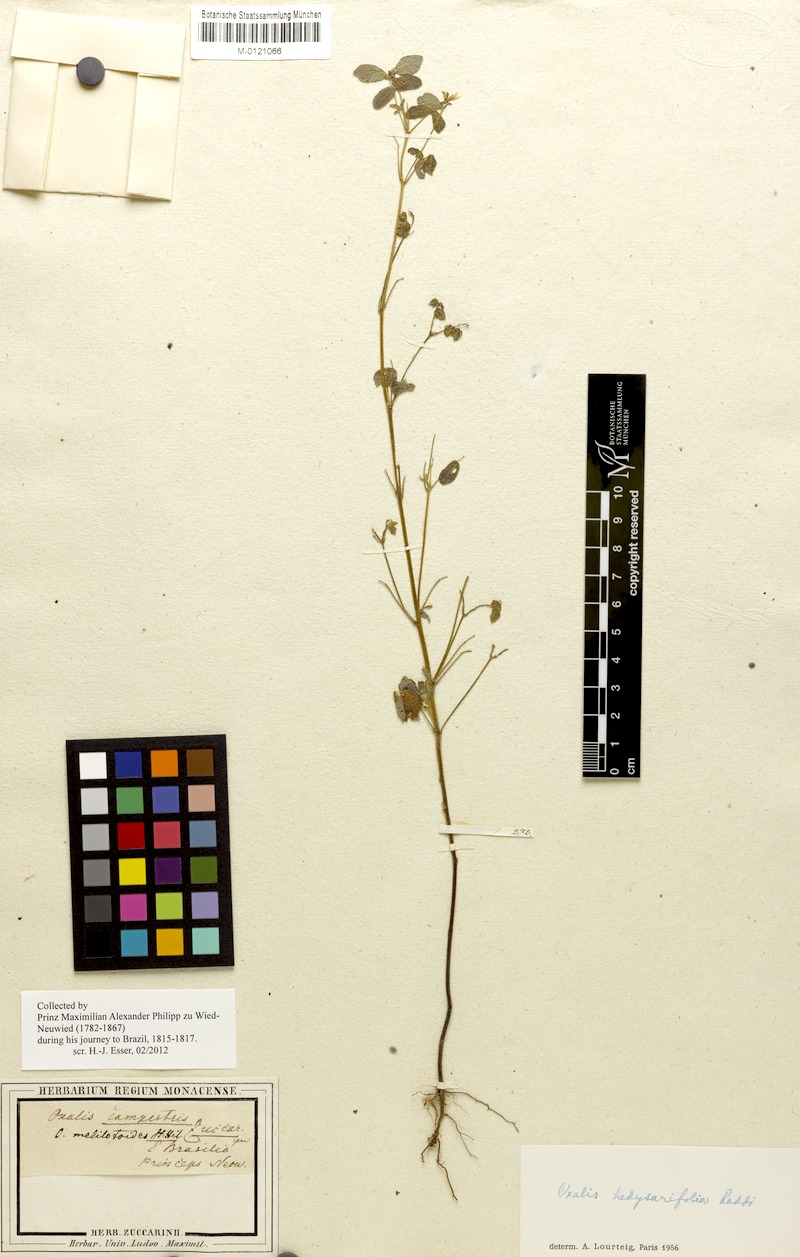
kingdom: Plantae
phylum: Tracheophyta
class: Magnoliopsida
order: Oxalidales
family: Oxalidaceae
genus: Oxalis
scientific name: Oxalis frutescens
